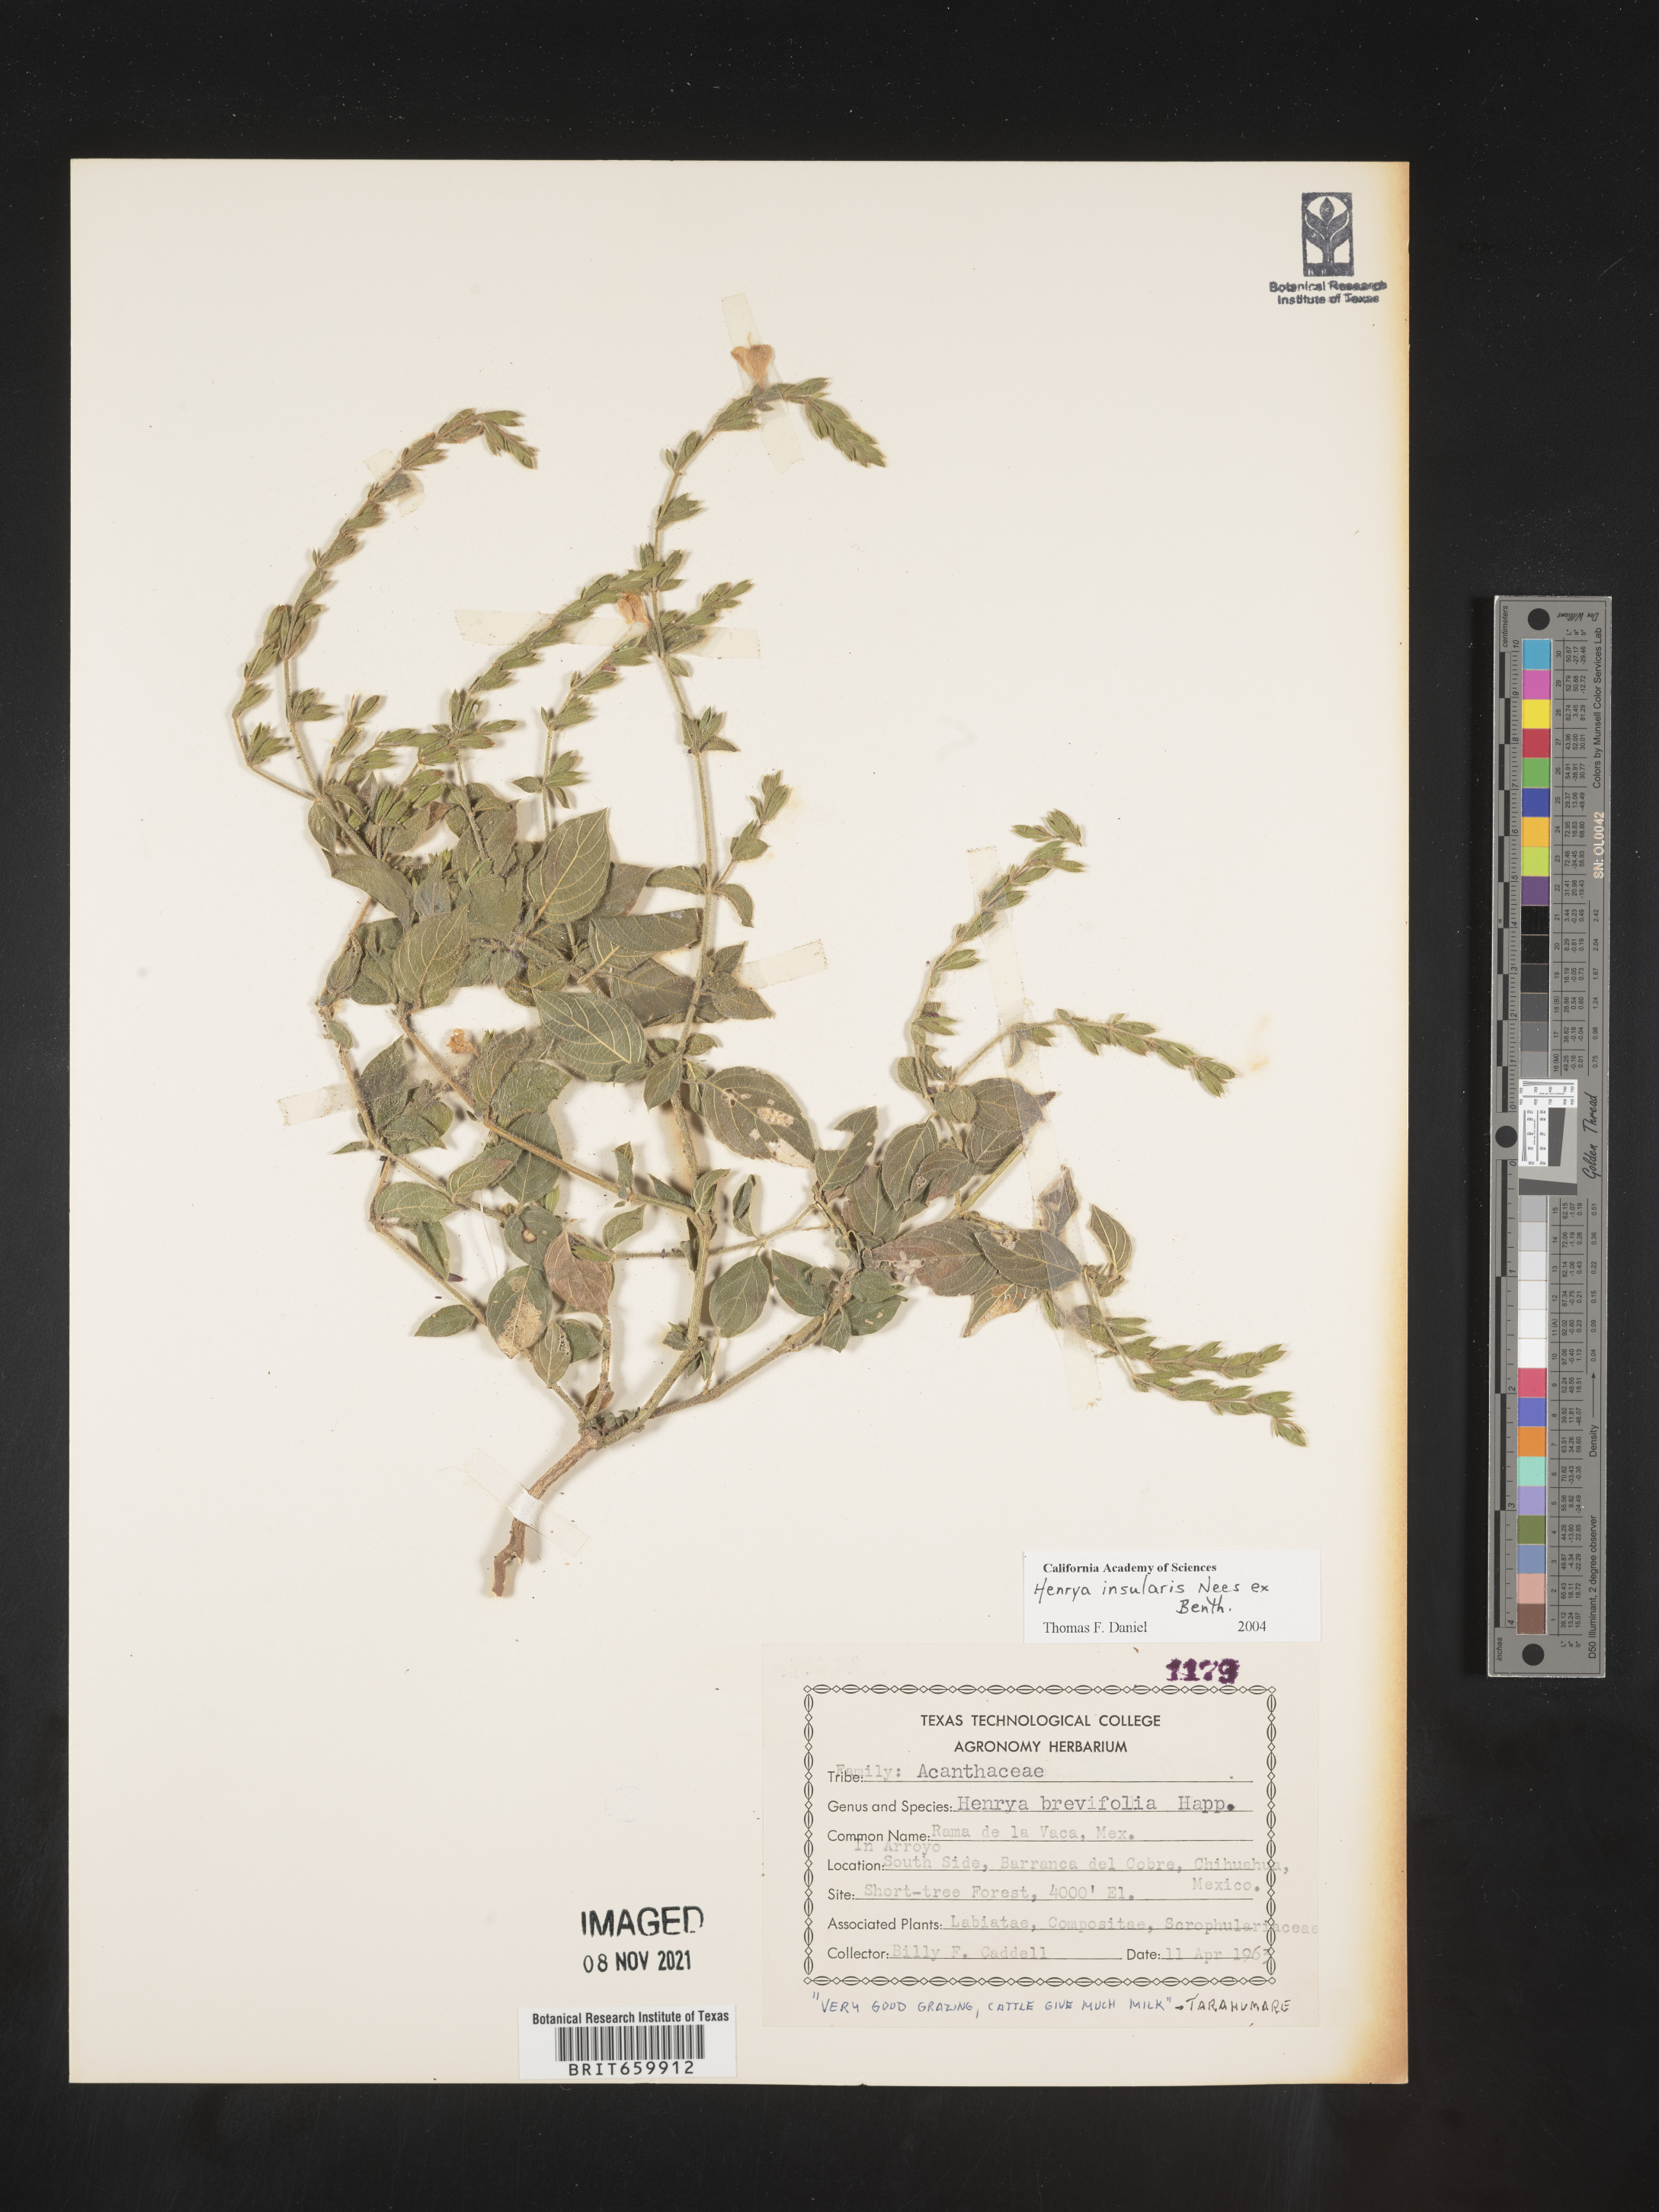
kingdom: Plantae
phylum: Tracheophyta
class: Magnoliopsida
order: Lamiales
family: Acanthaceae
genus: Henrya
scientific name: Henrya
